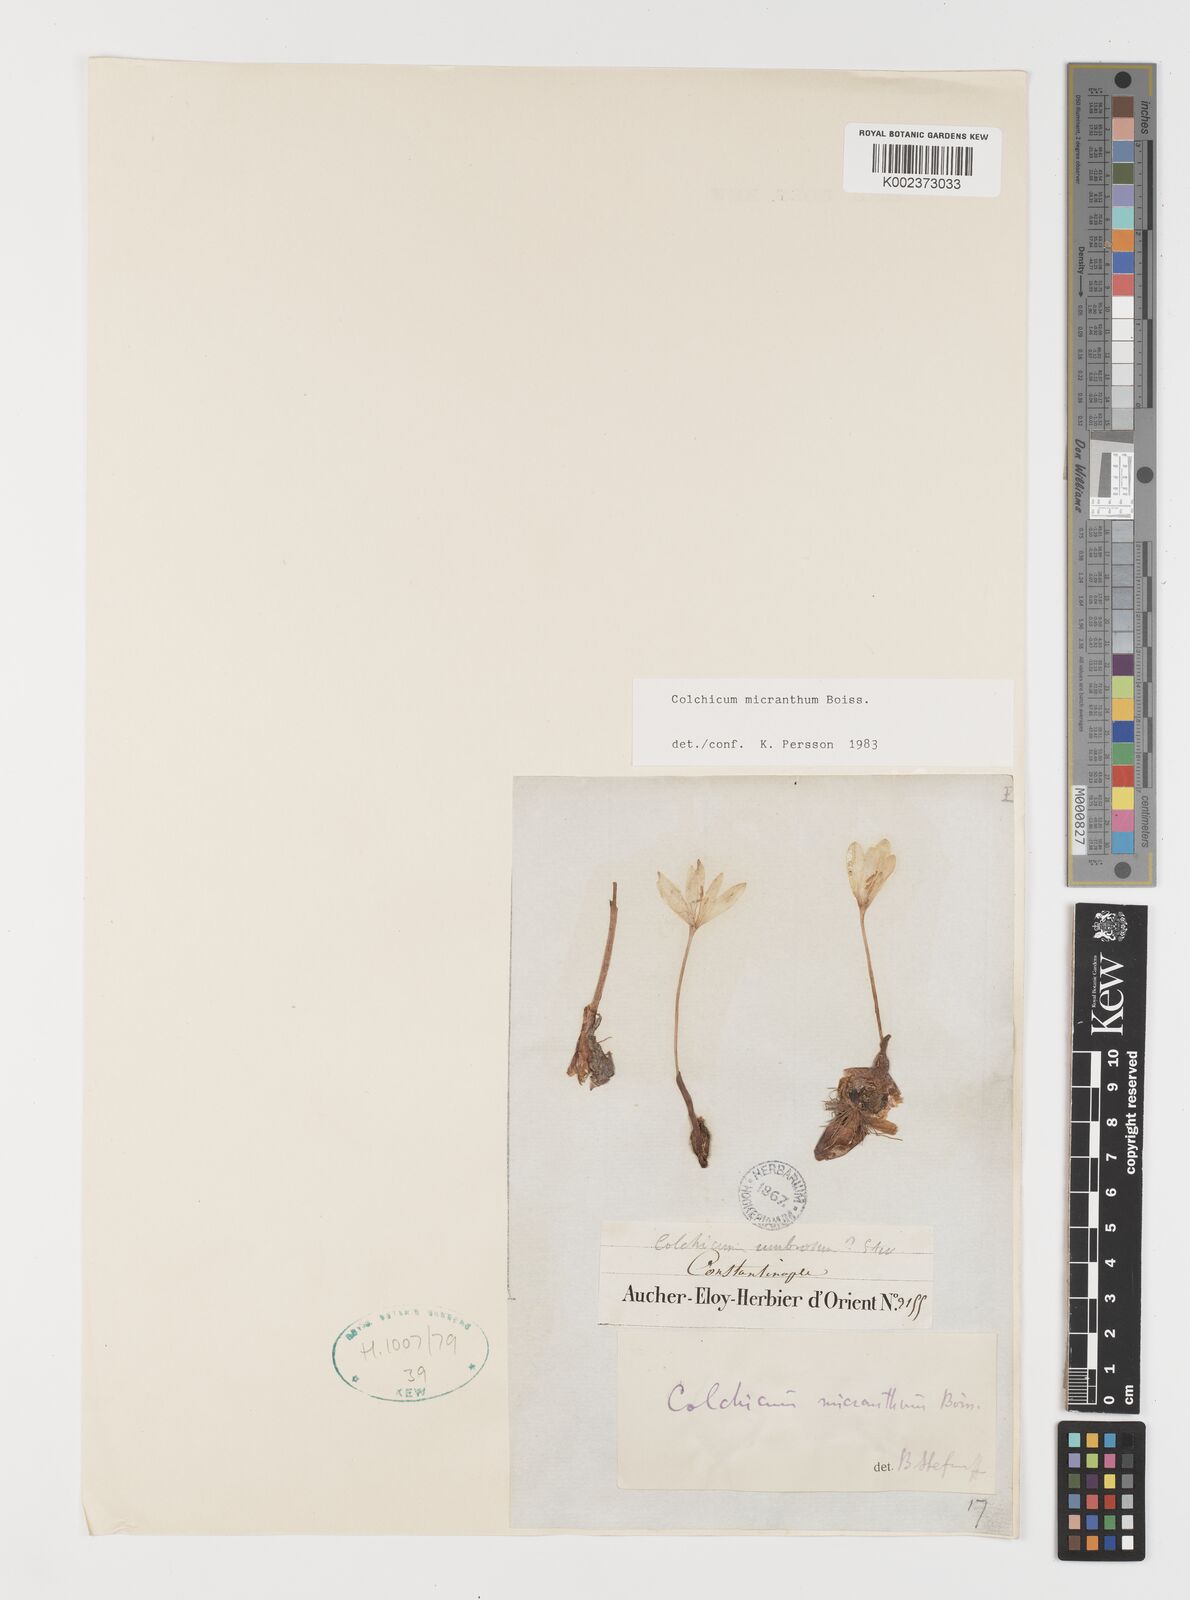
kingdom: Plantae
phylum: Tracheophyta
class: Liliopsida
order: Liliales
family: Colchicaceae
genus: Colchicum
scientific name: Colchicum micranthum
